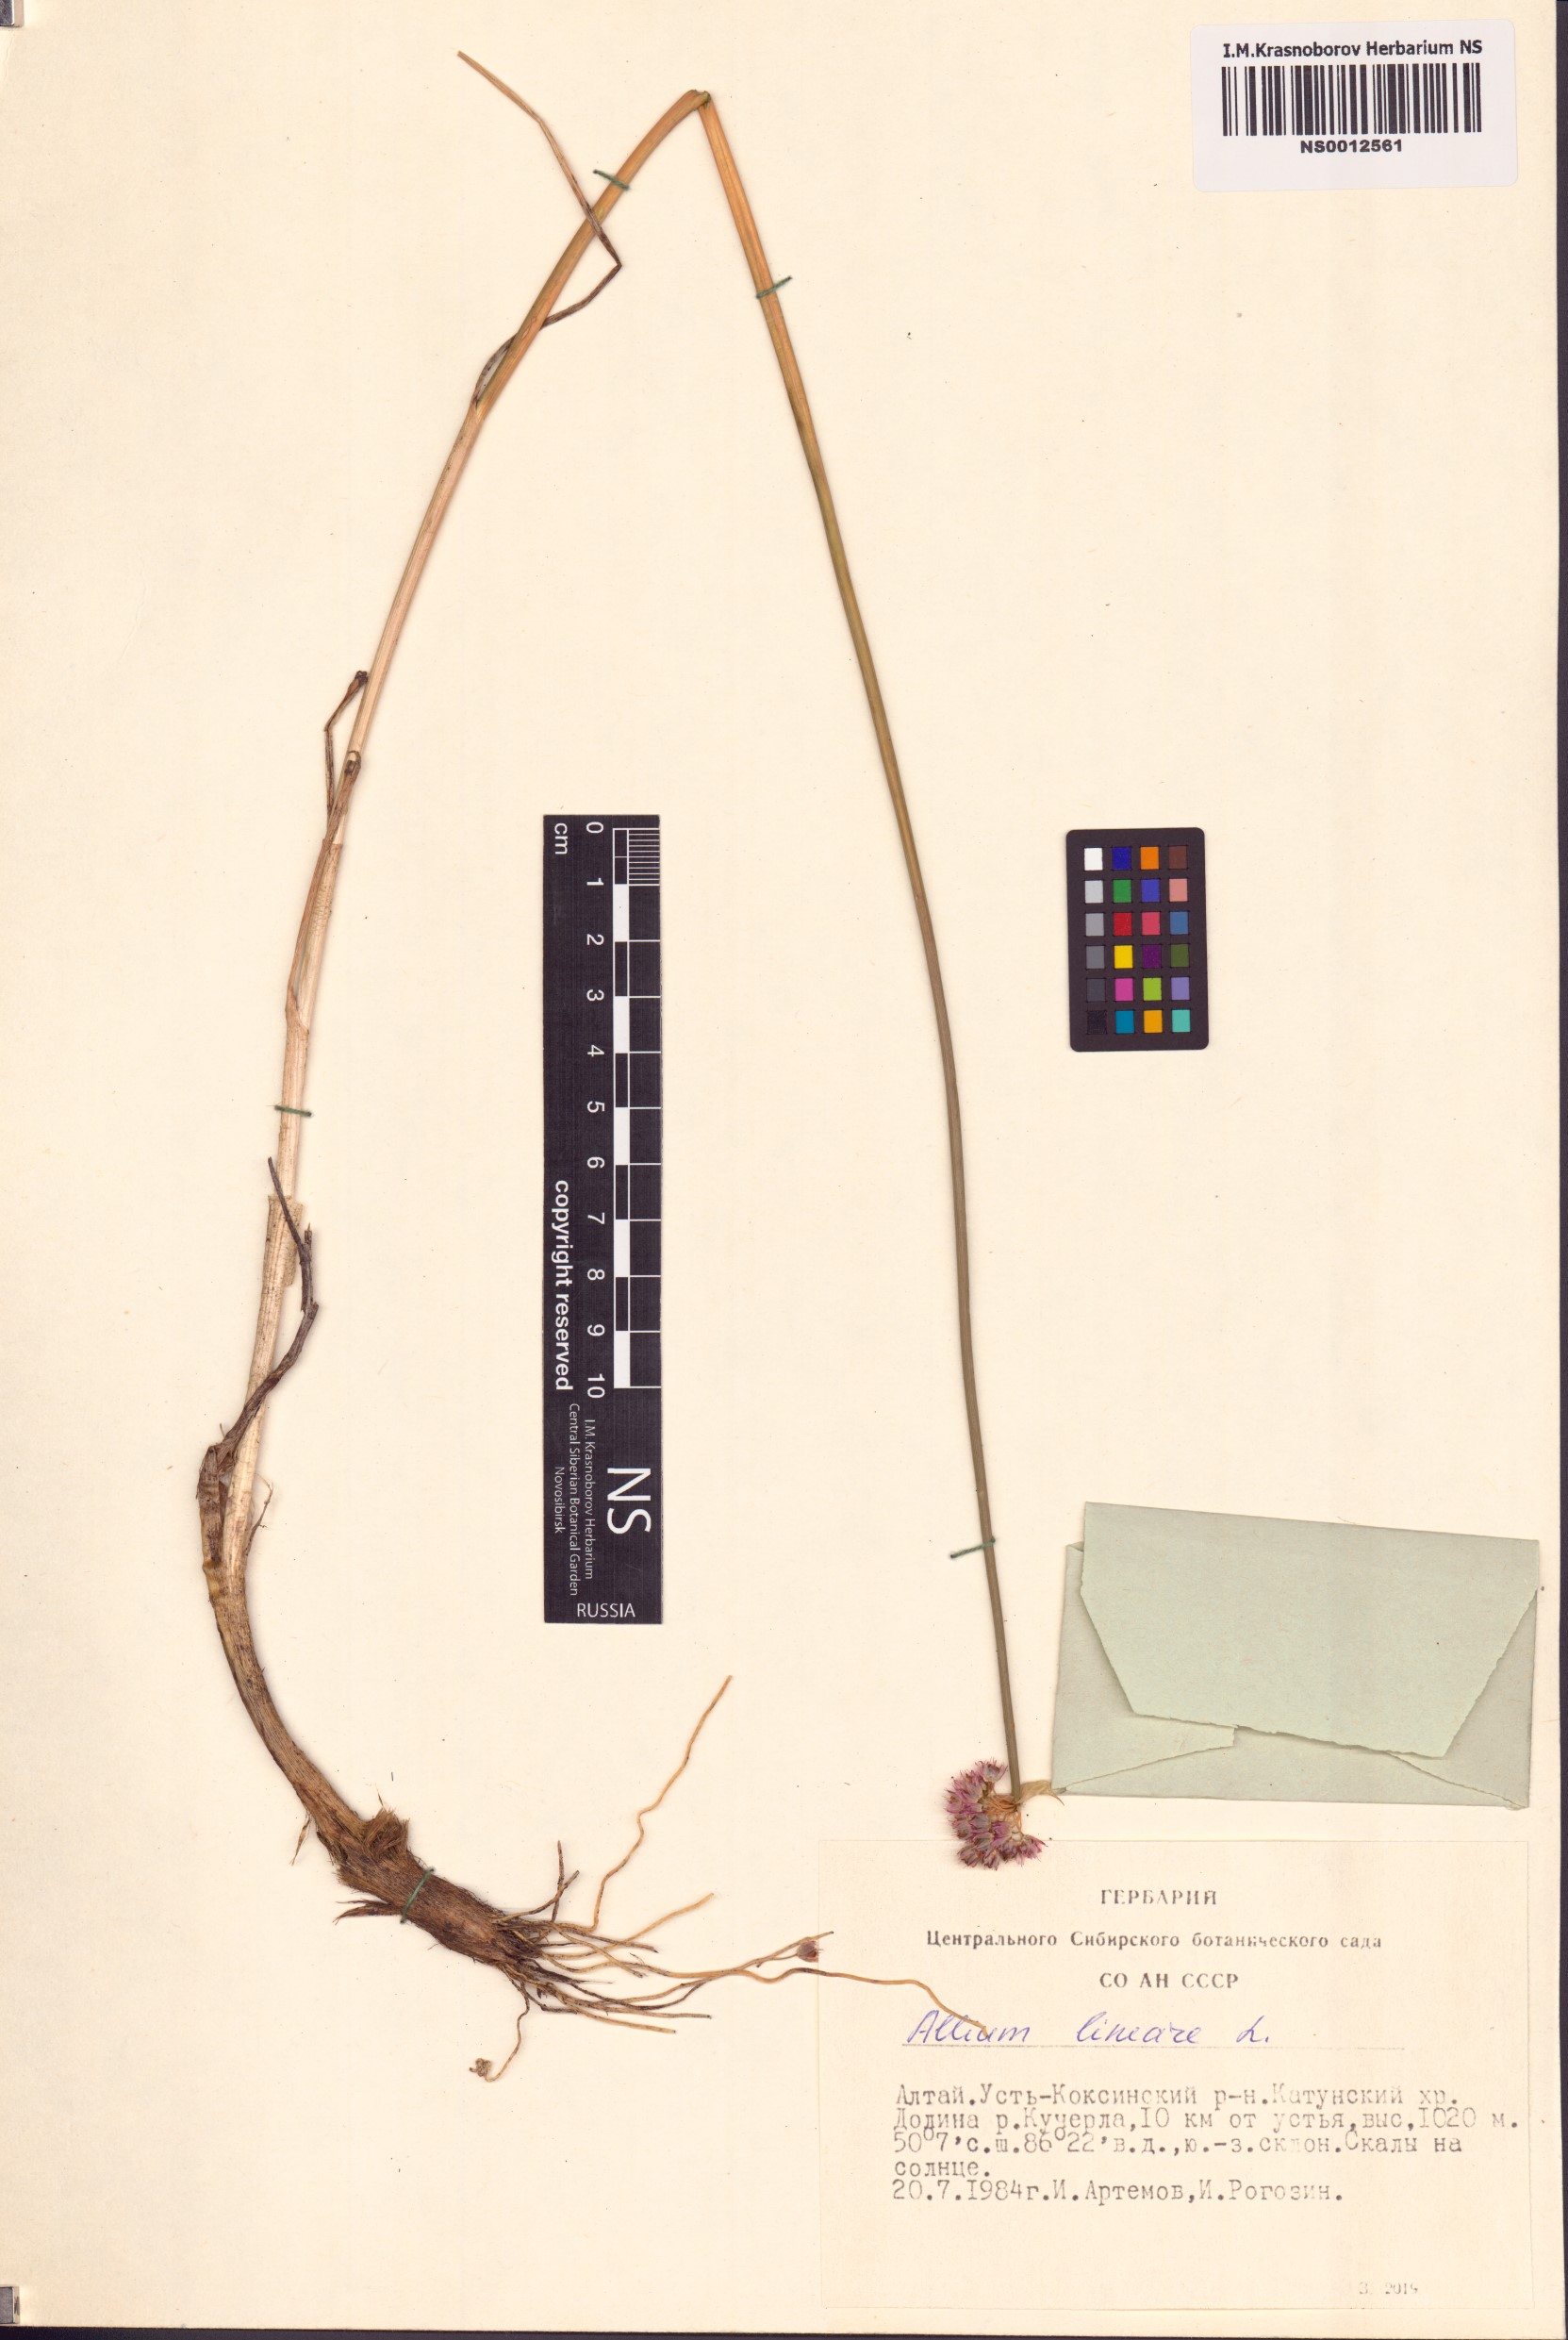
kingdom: Plantae
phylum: Tracheophyta
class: Liliopsida
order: Asparagales
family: Amaryllidaceae
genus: Allium
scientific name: Allium lineare
